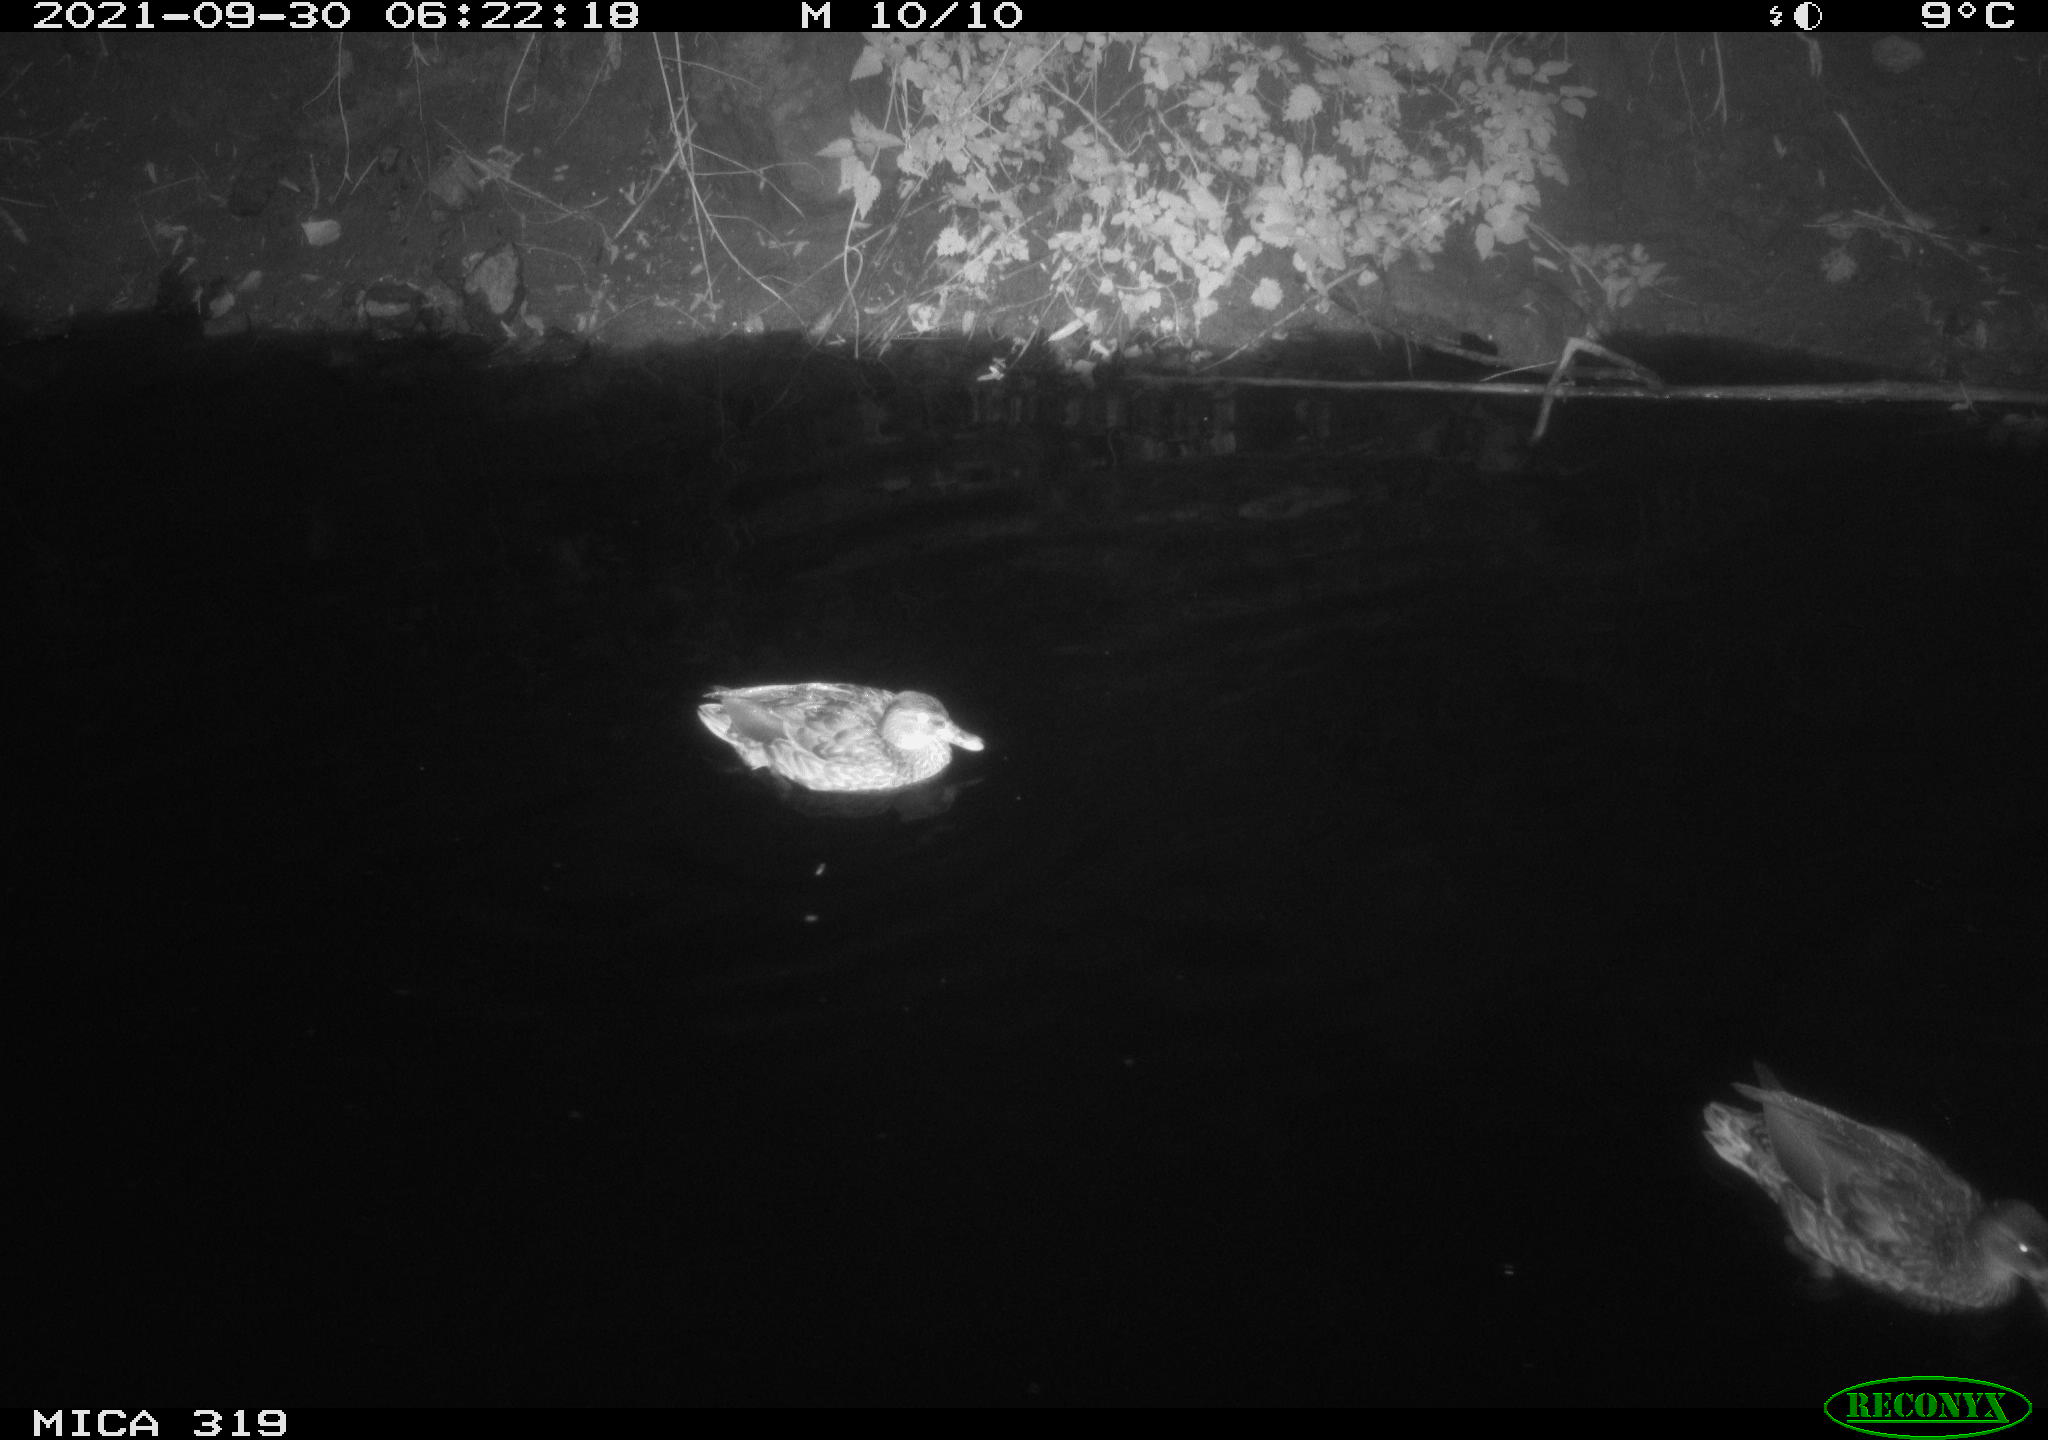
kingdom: Animalia
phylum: Chordata
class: Aves
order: Anseriformes
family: Anatidae
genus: Anas
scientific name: Anas platyrhynchos
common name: Mallard
